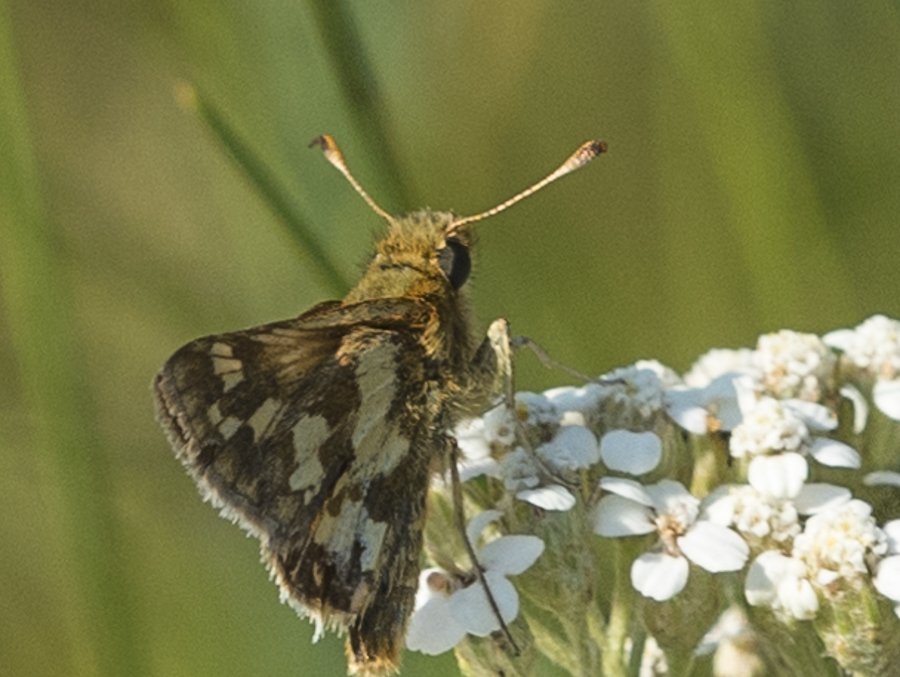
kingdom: Animalia
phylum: Arthropoda
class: Insecta
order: Lepidoptera
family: Hesperiidae
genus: Polites
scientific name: Polites coras
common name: Peck's Skipper
